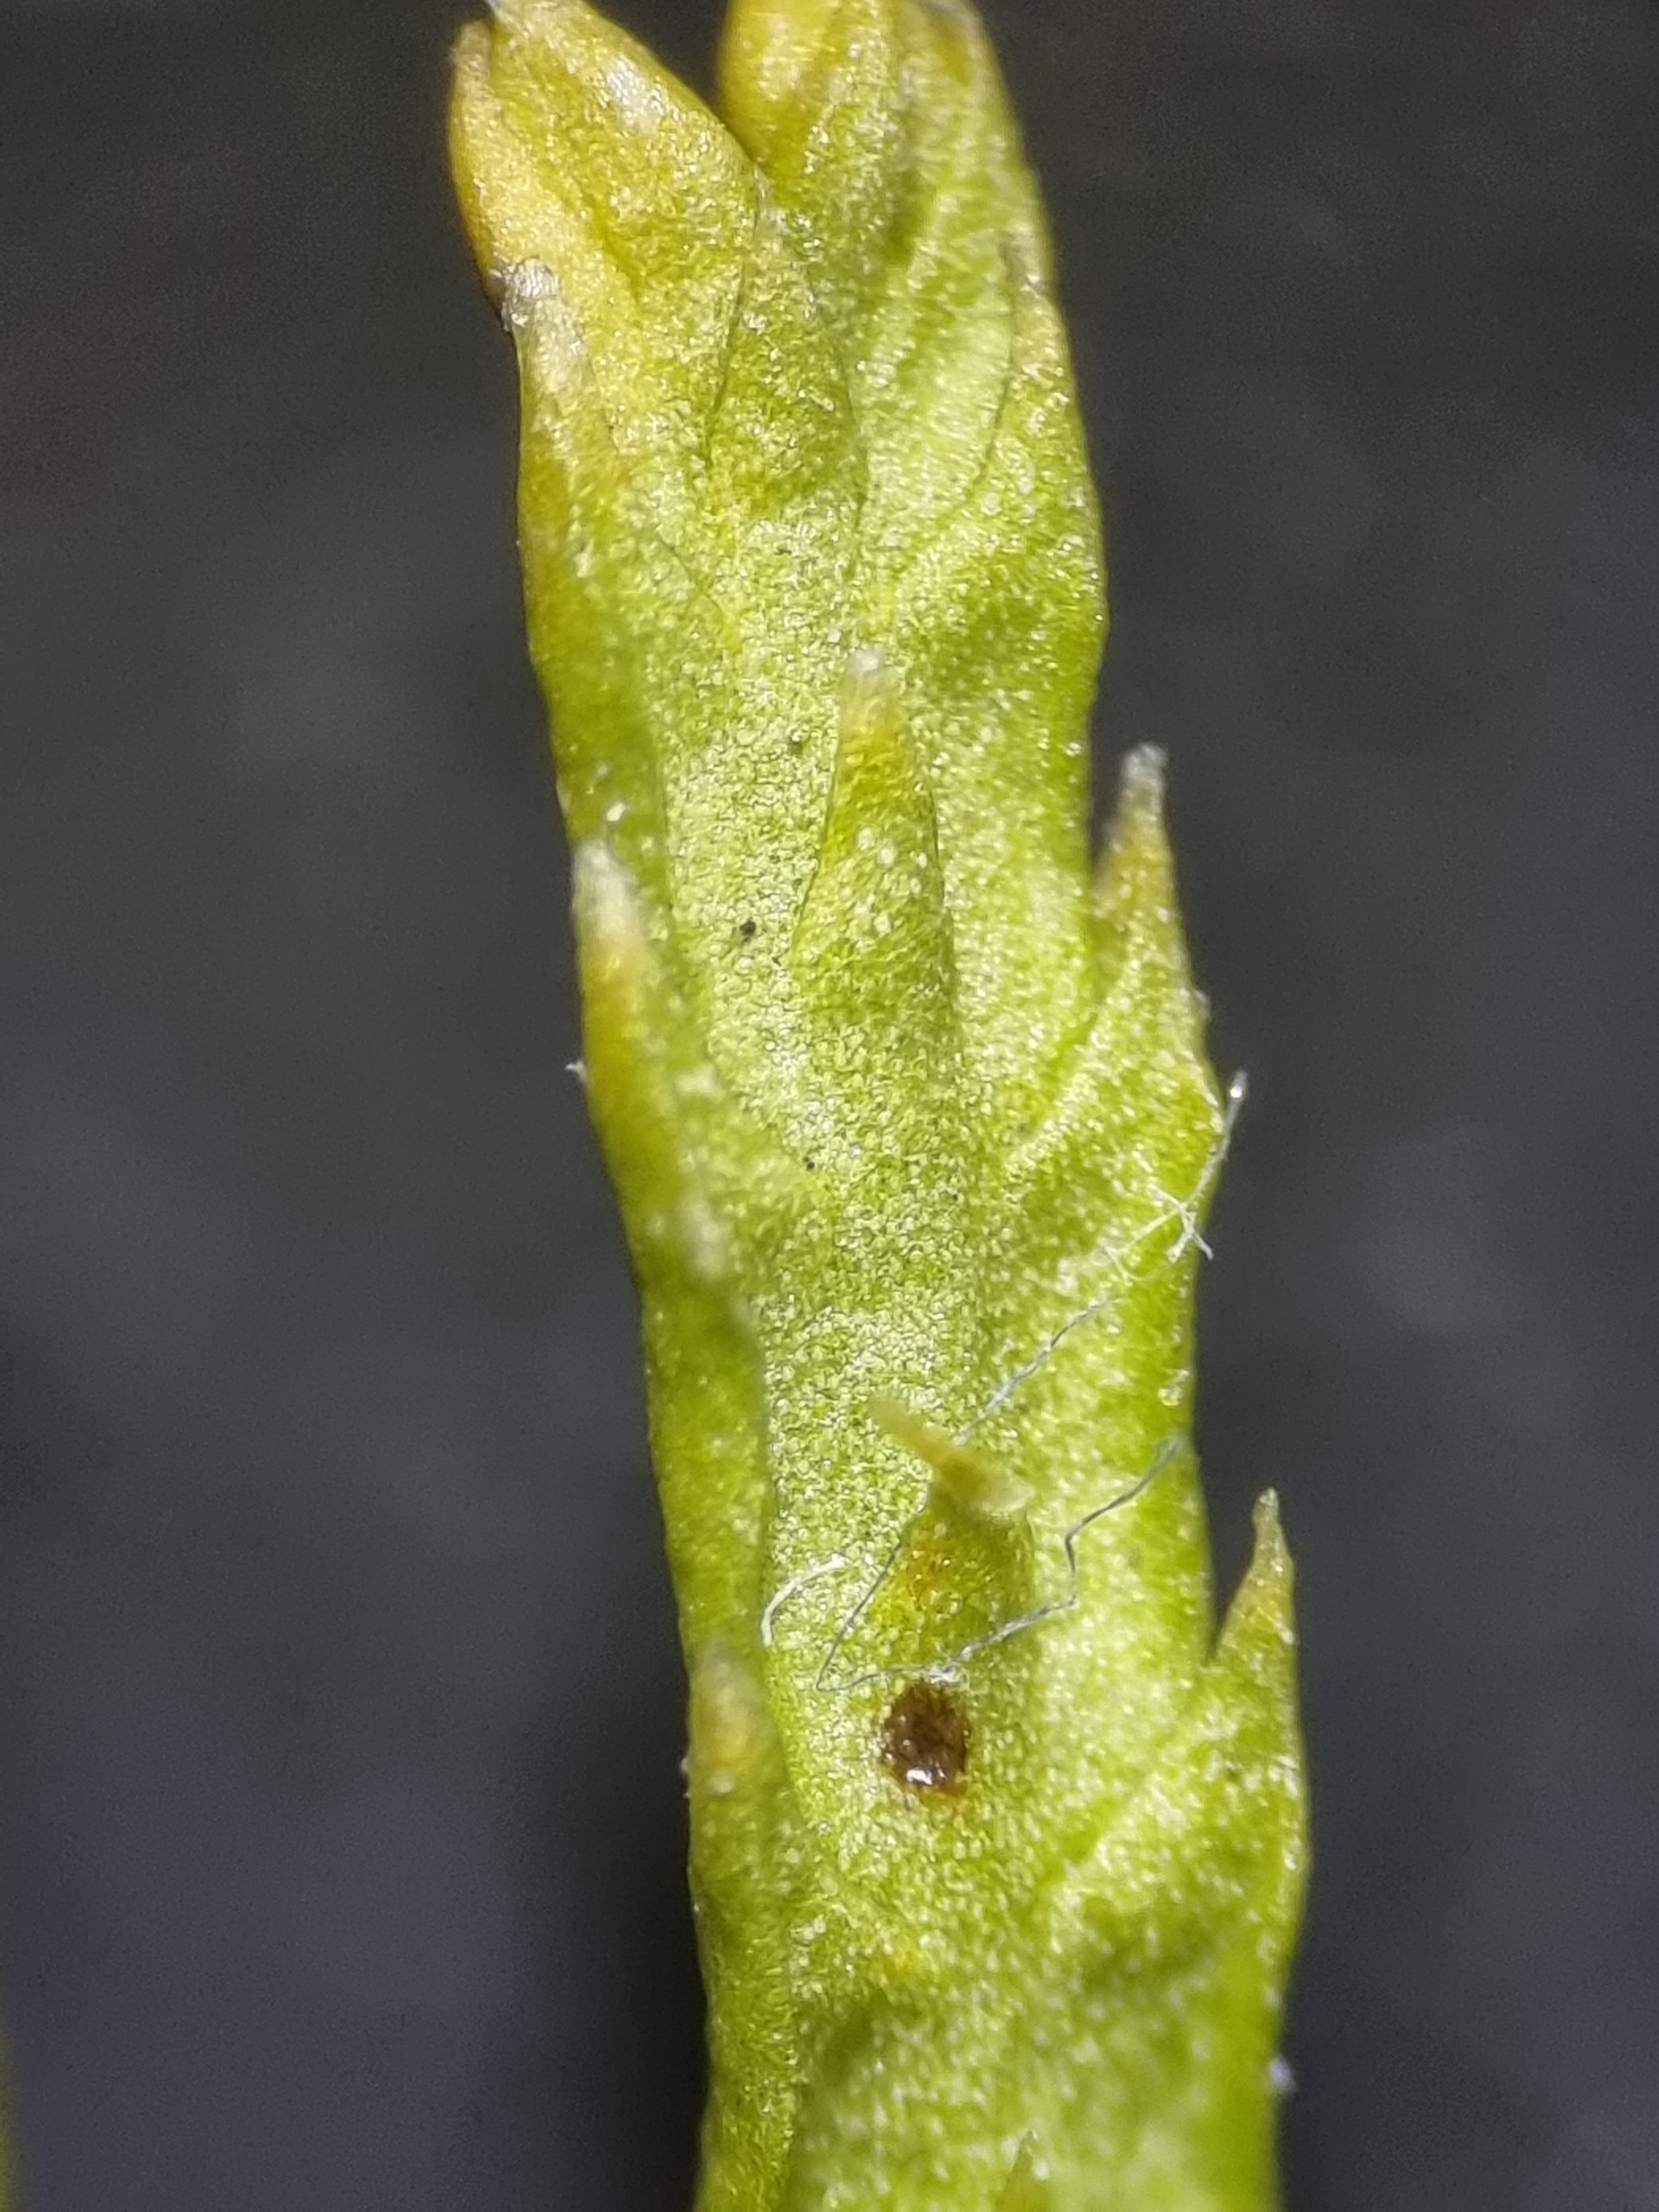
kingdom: Plantae
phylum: Tracheophyta
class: Lycopodiopsida
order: Lycopodiales
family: Lycopodiaceae
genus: Diphasiastrum
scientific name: Diphasiastrum tristachyum
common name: Flad ulvefod × cypres-ulvefod
